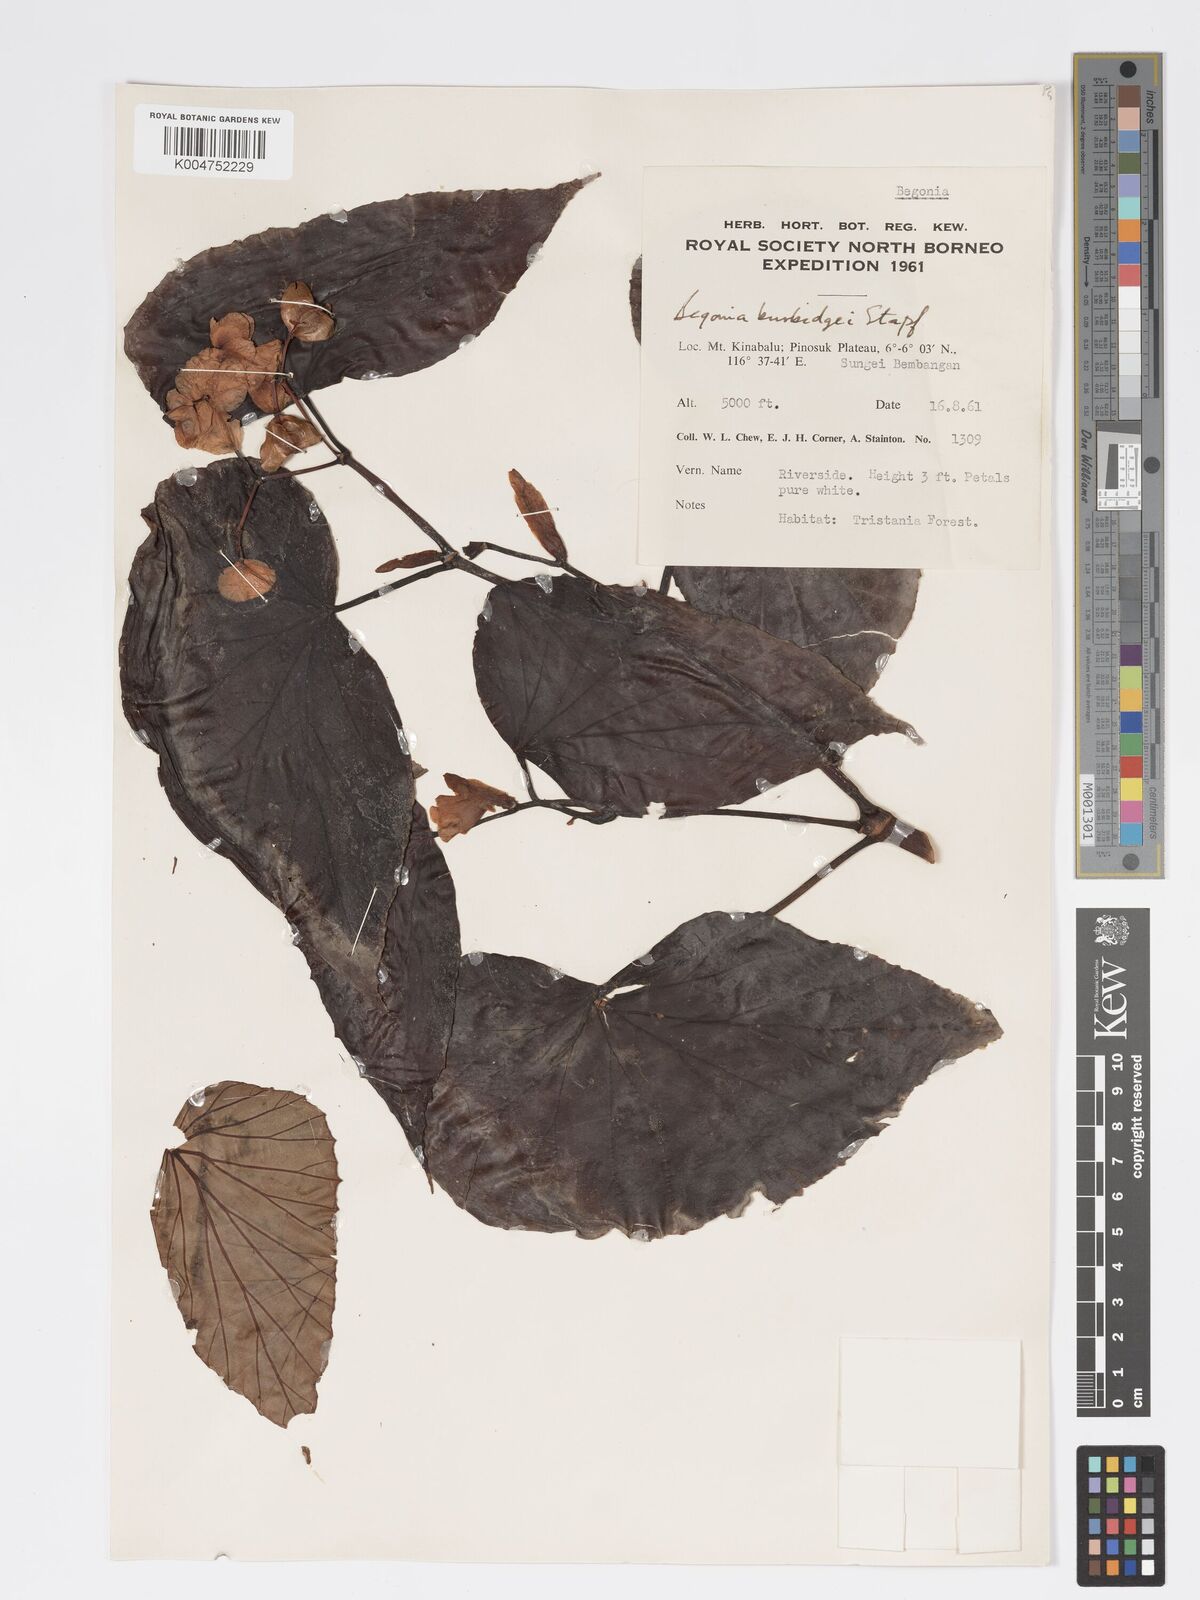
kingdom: Plantae
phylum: Tracheophyta
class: Magnoliopsida
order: Cucurbitales
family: Begoniaceae
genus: Begonia
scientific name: Begonia burbidgei
